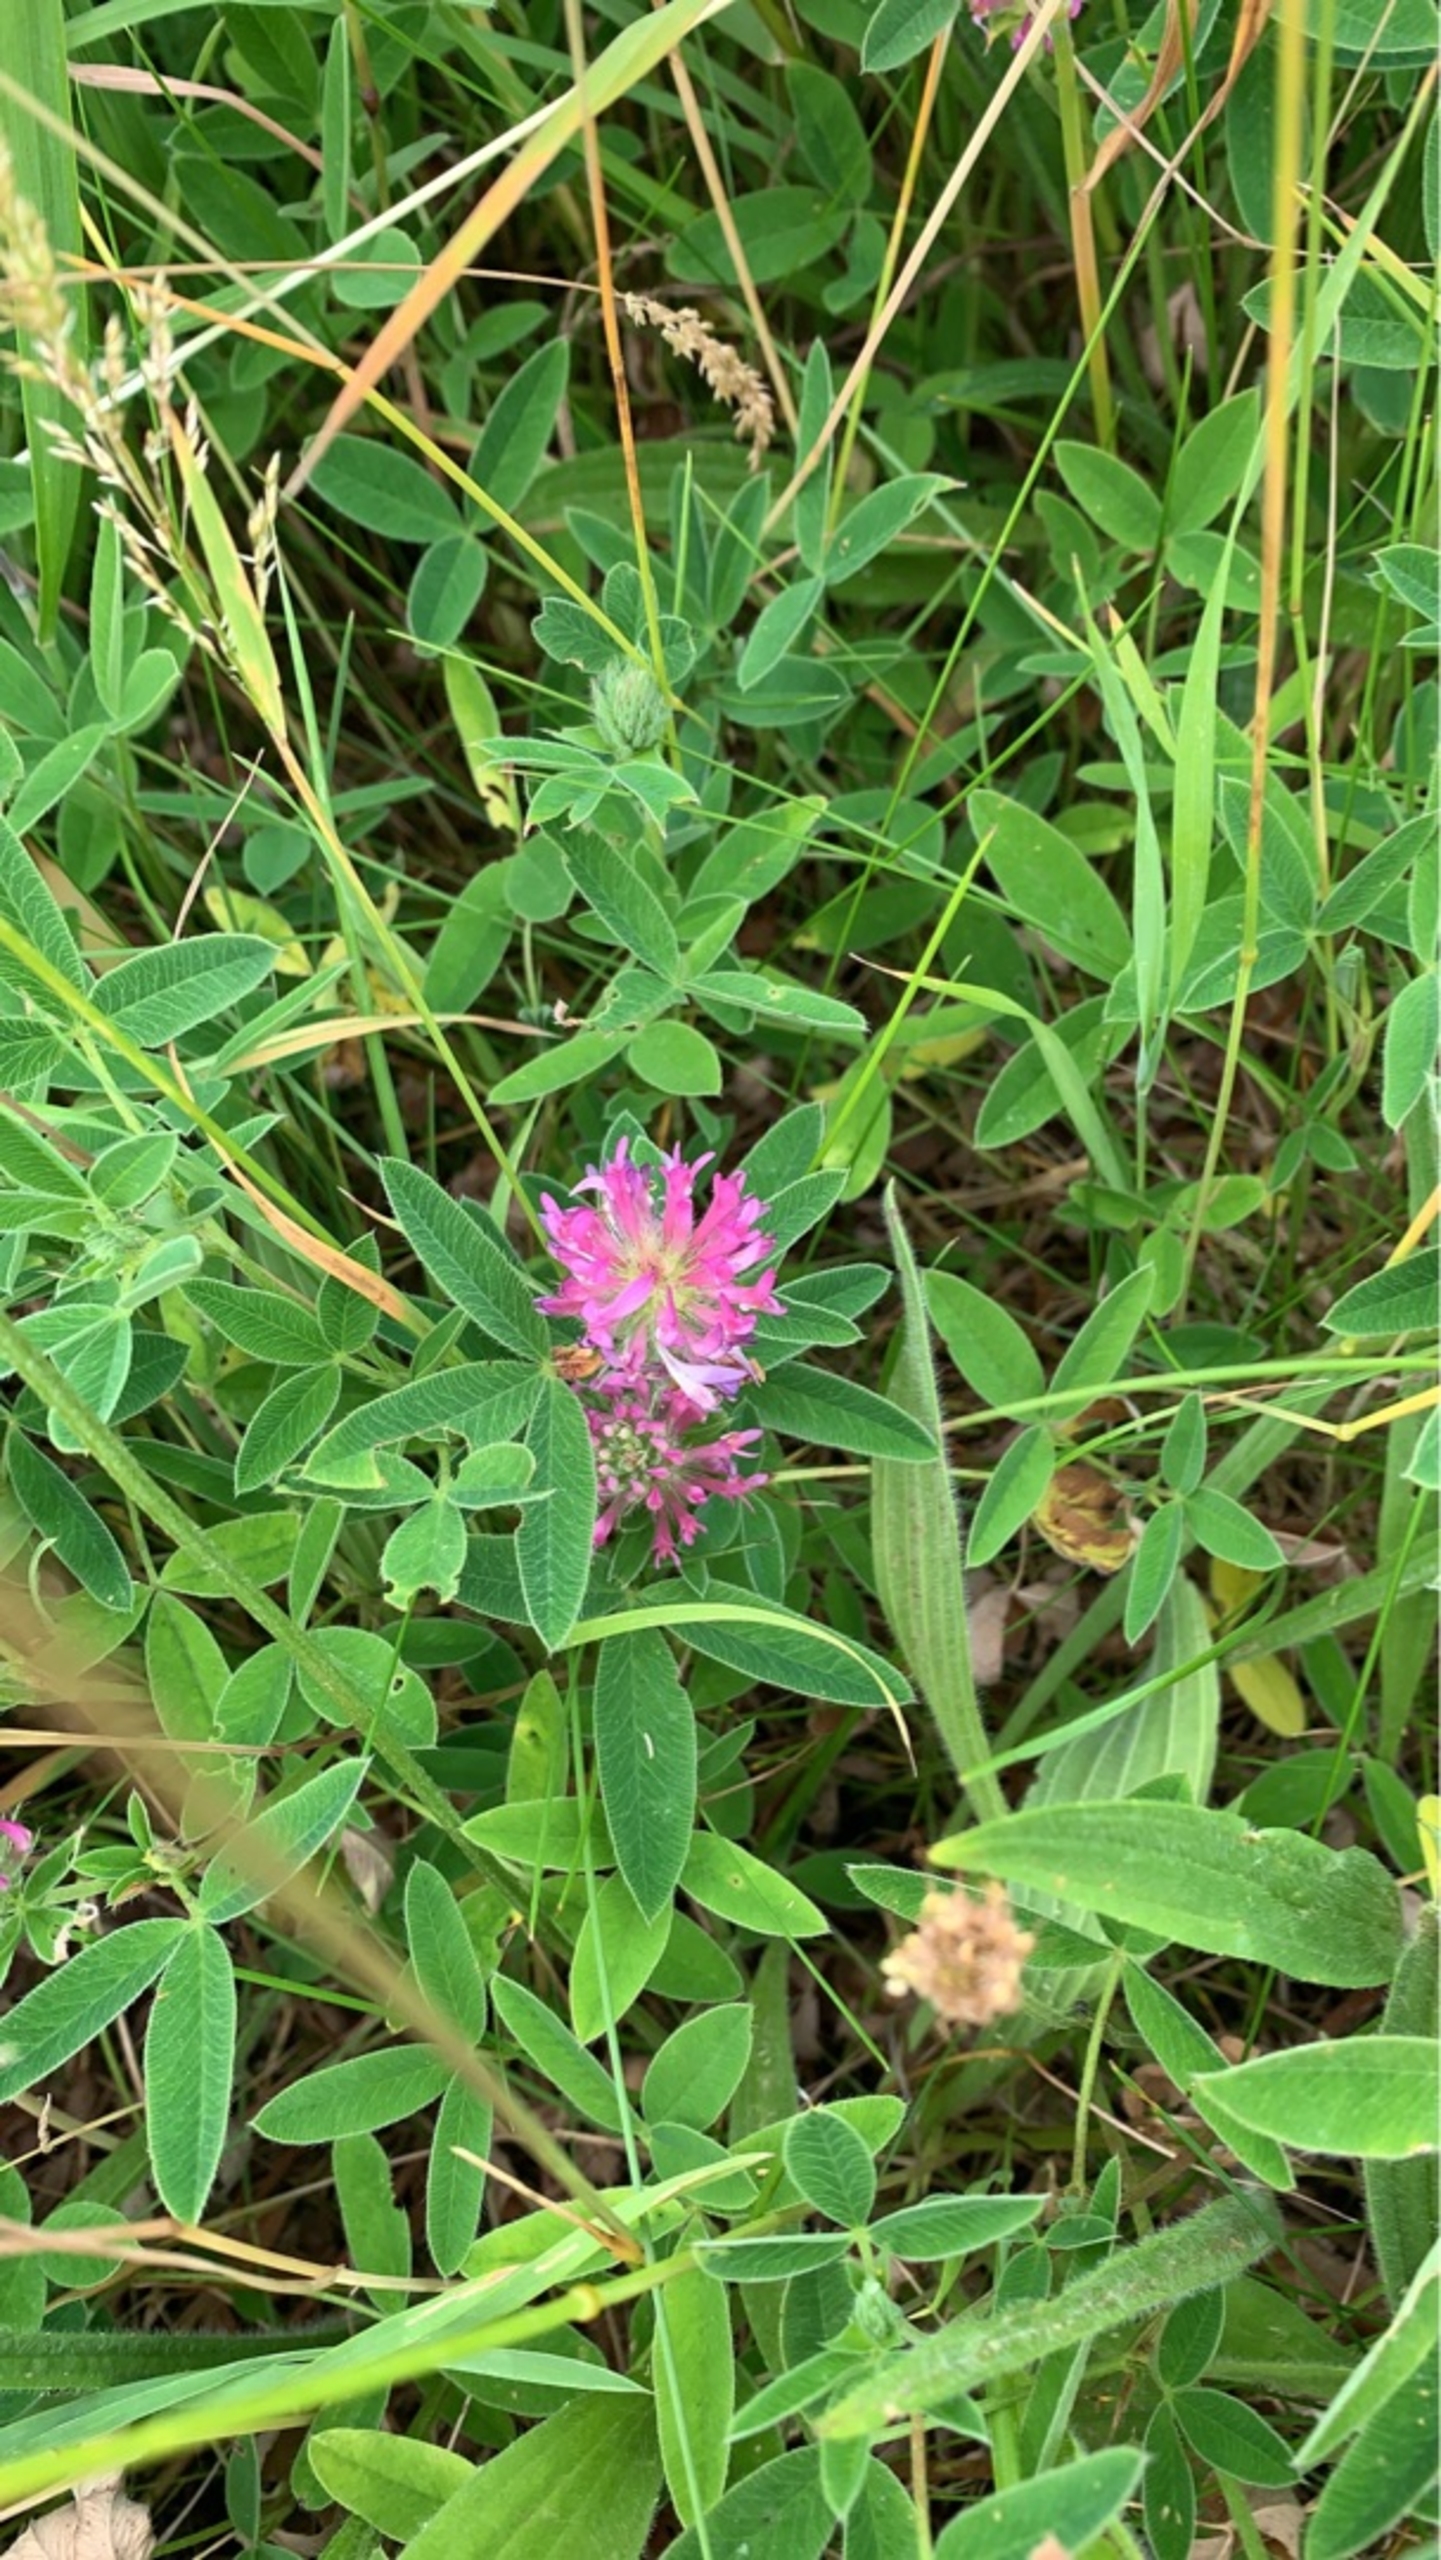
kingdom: Plantae
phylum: Tracheophyta
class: Magnoliopsida
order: Fabales
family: Fabaceae
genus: Trifolium
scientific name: Trifolium medium
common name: Bugtet kløver
